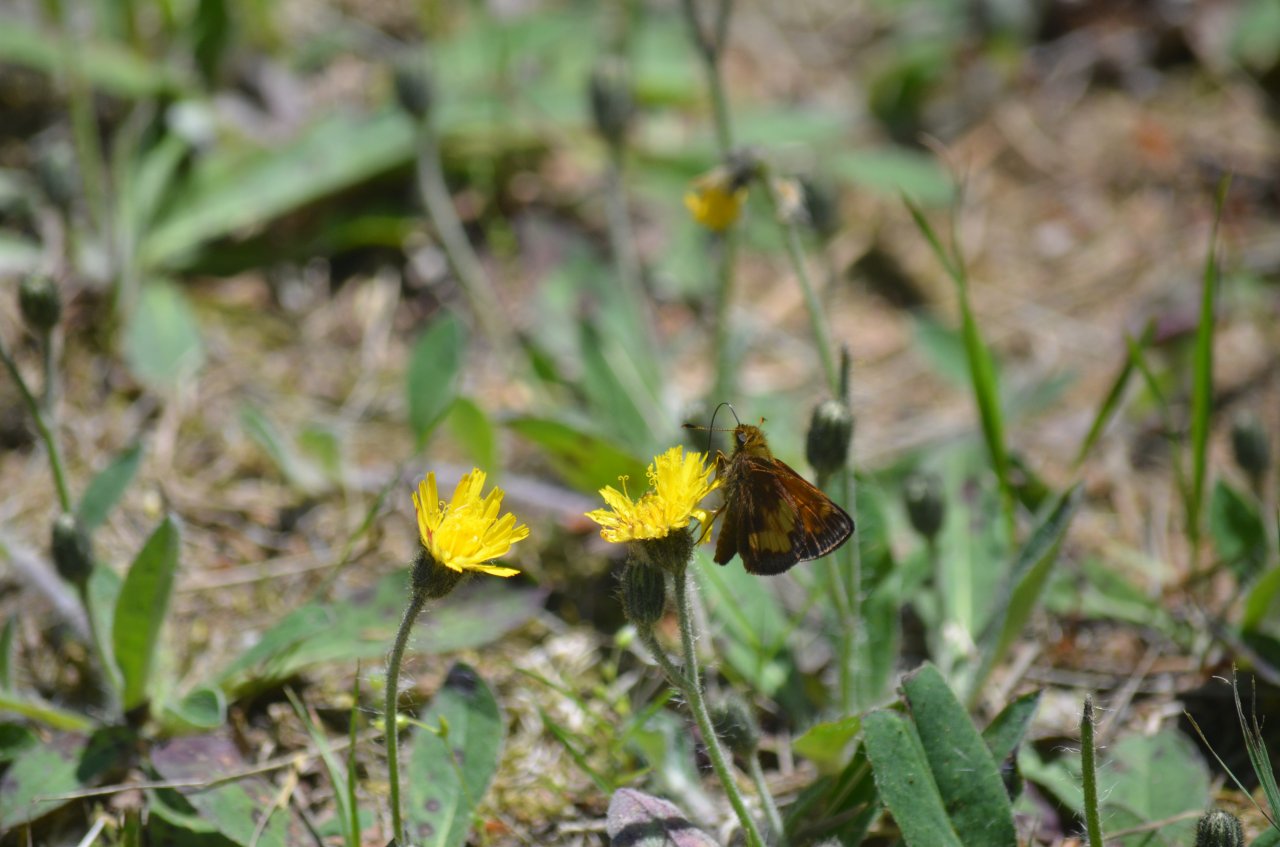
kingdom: Animalia
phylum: Arthropoda
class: Insecta
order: Lepidoptera
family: Hesperiidae
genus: Lon
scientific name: Lon hobomok
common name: Hobomok Skipper
